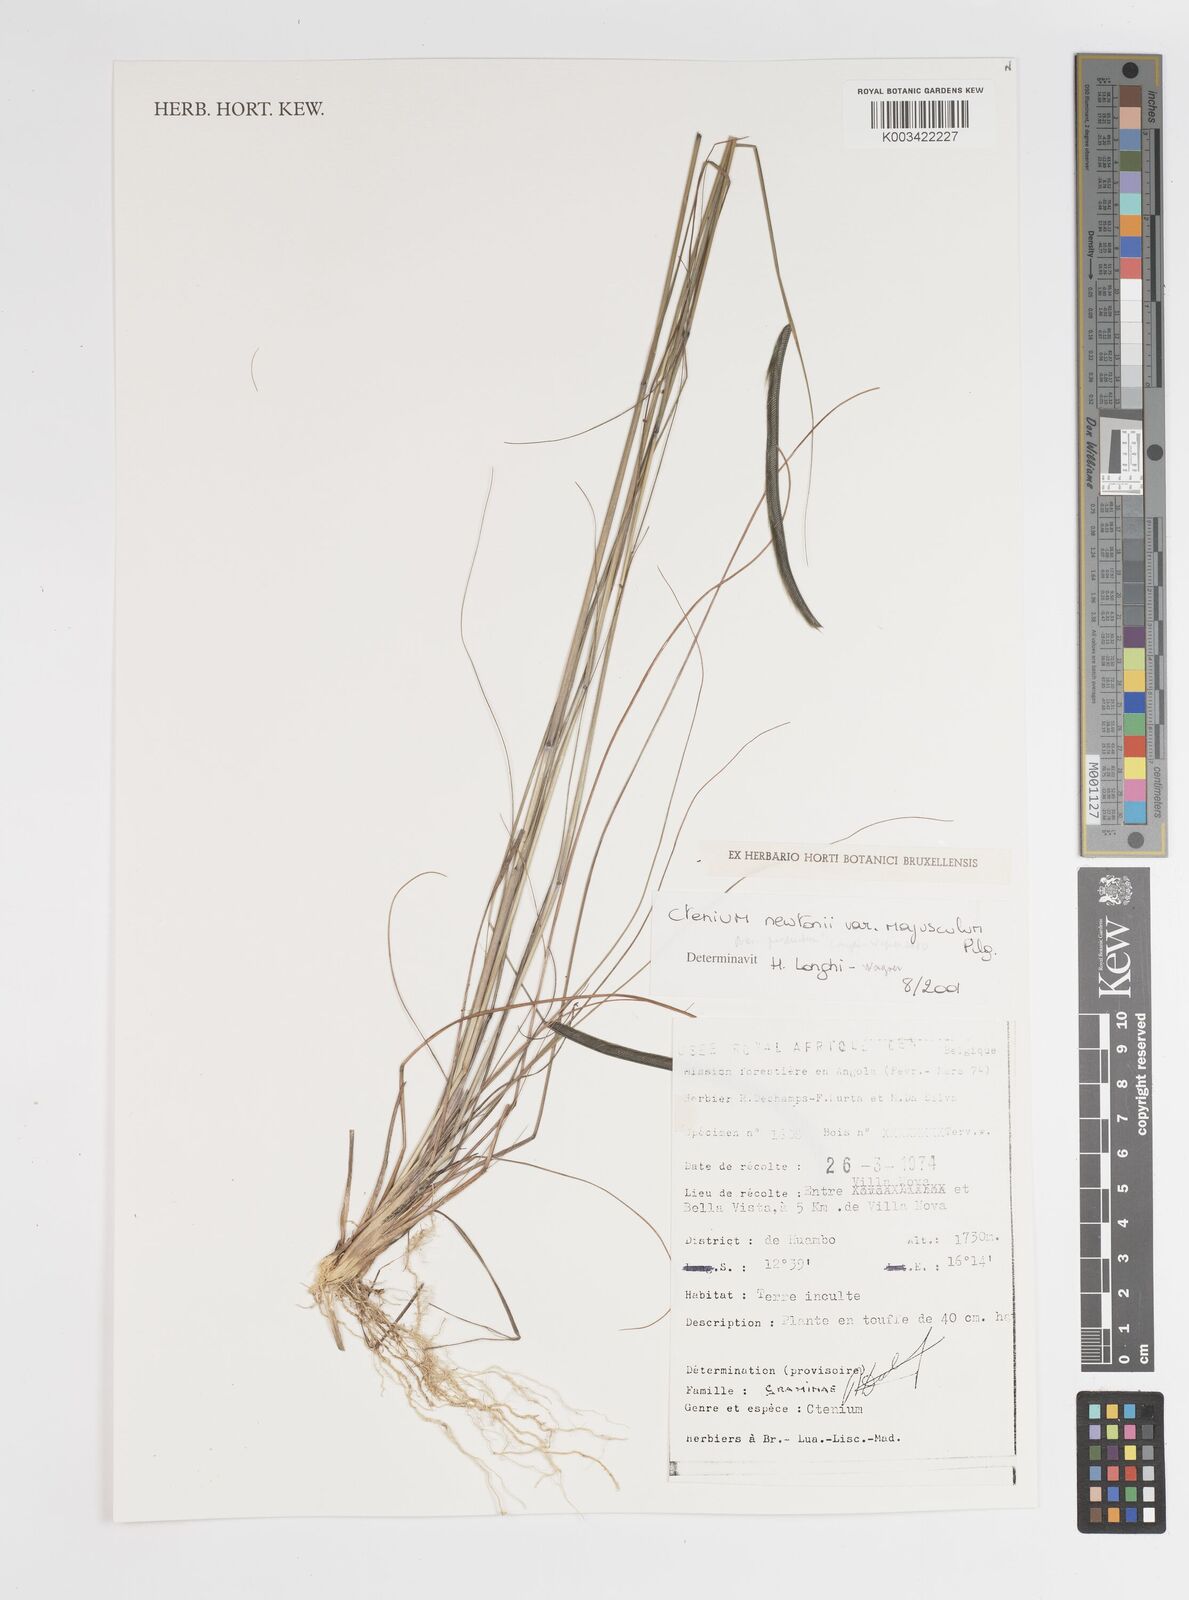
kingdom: Plantae
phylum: Tracheophyta
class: Liliopsida
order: Poales
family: Poaceae
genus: Ctenium
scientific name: Ctenium newtonii
